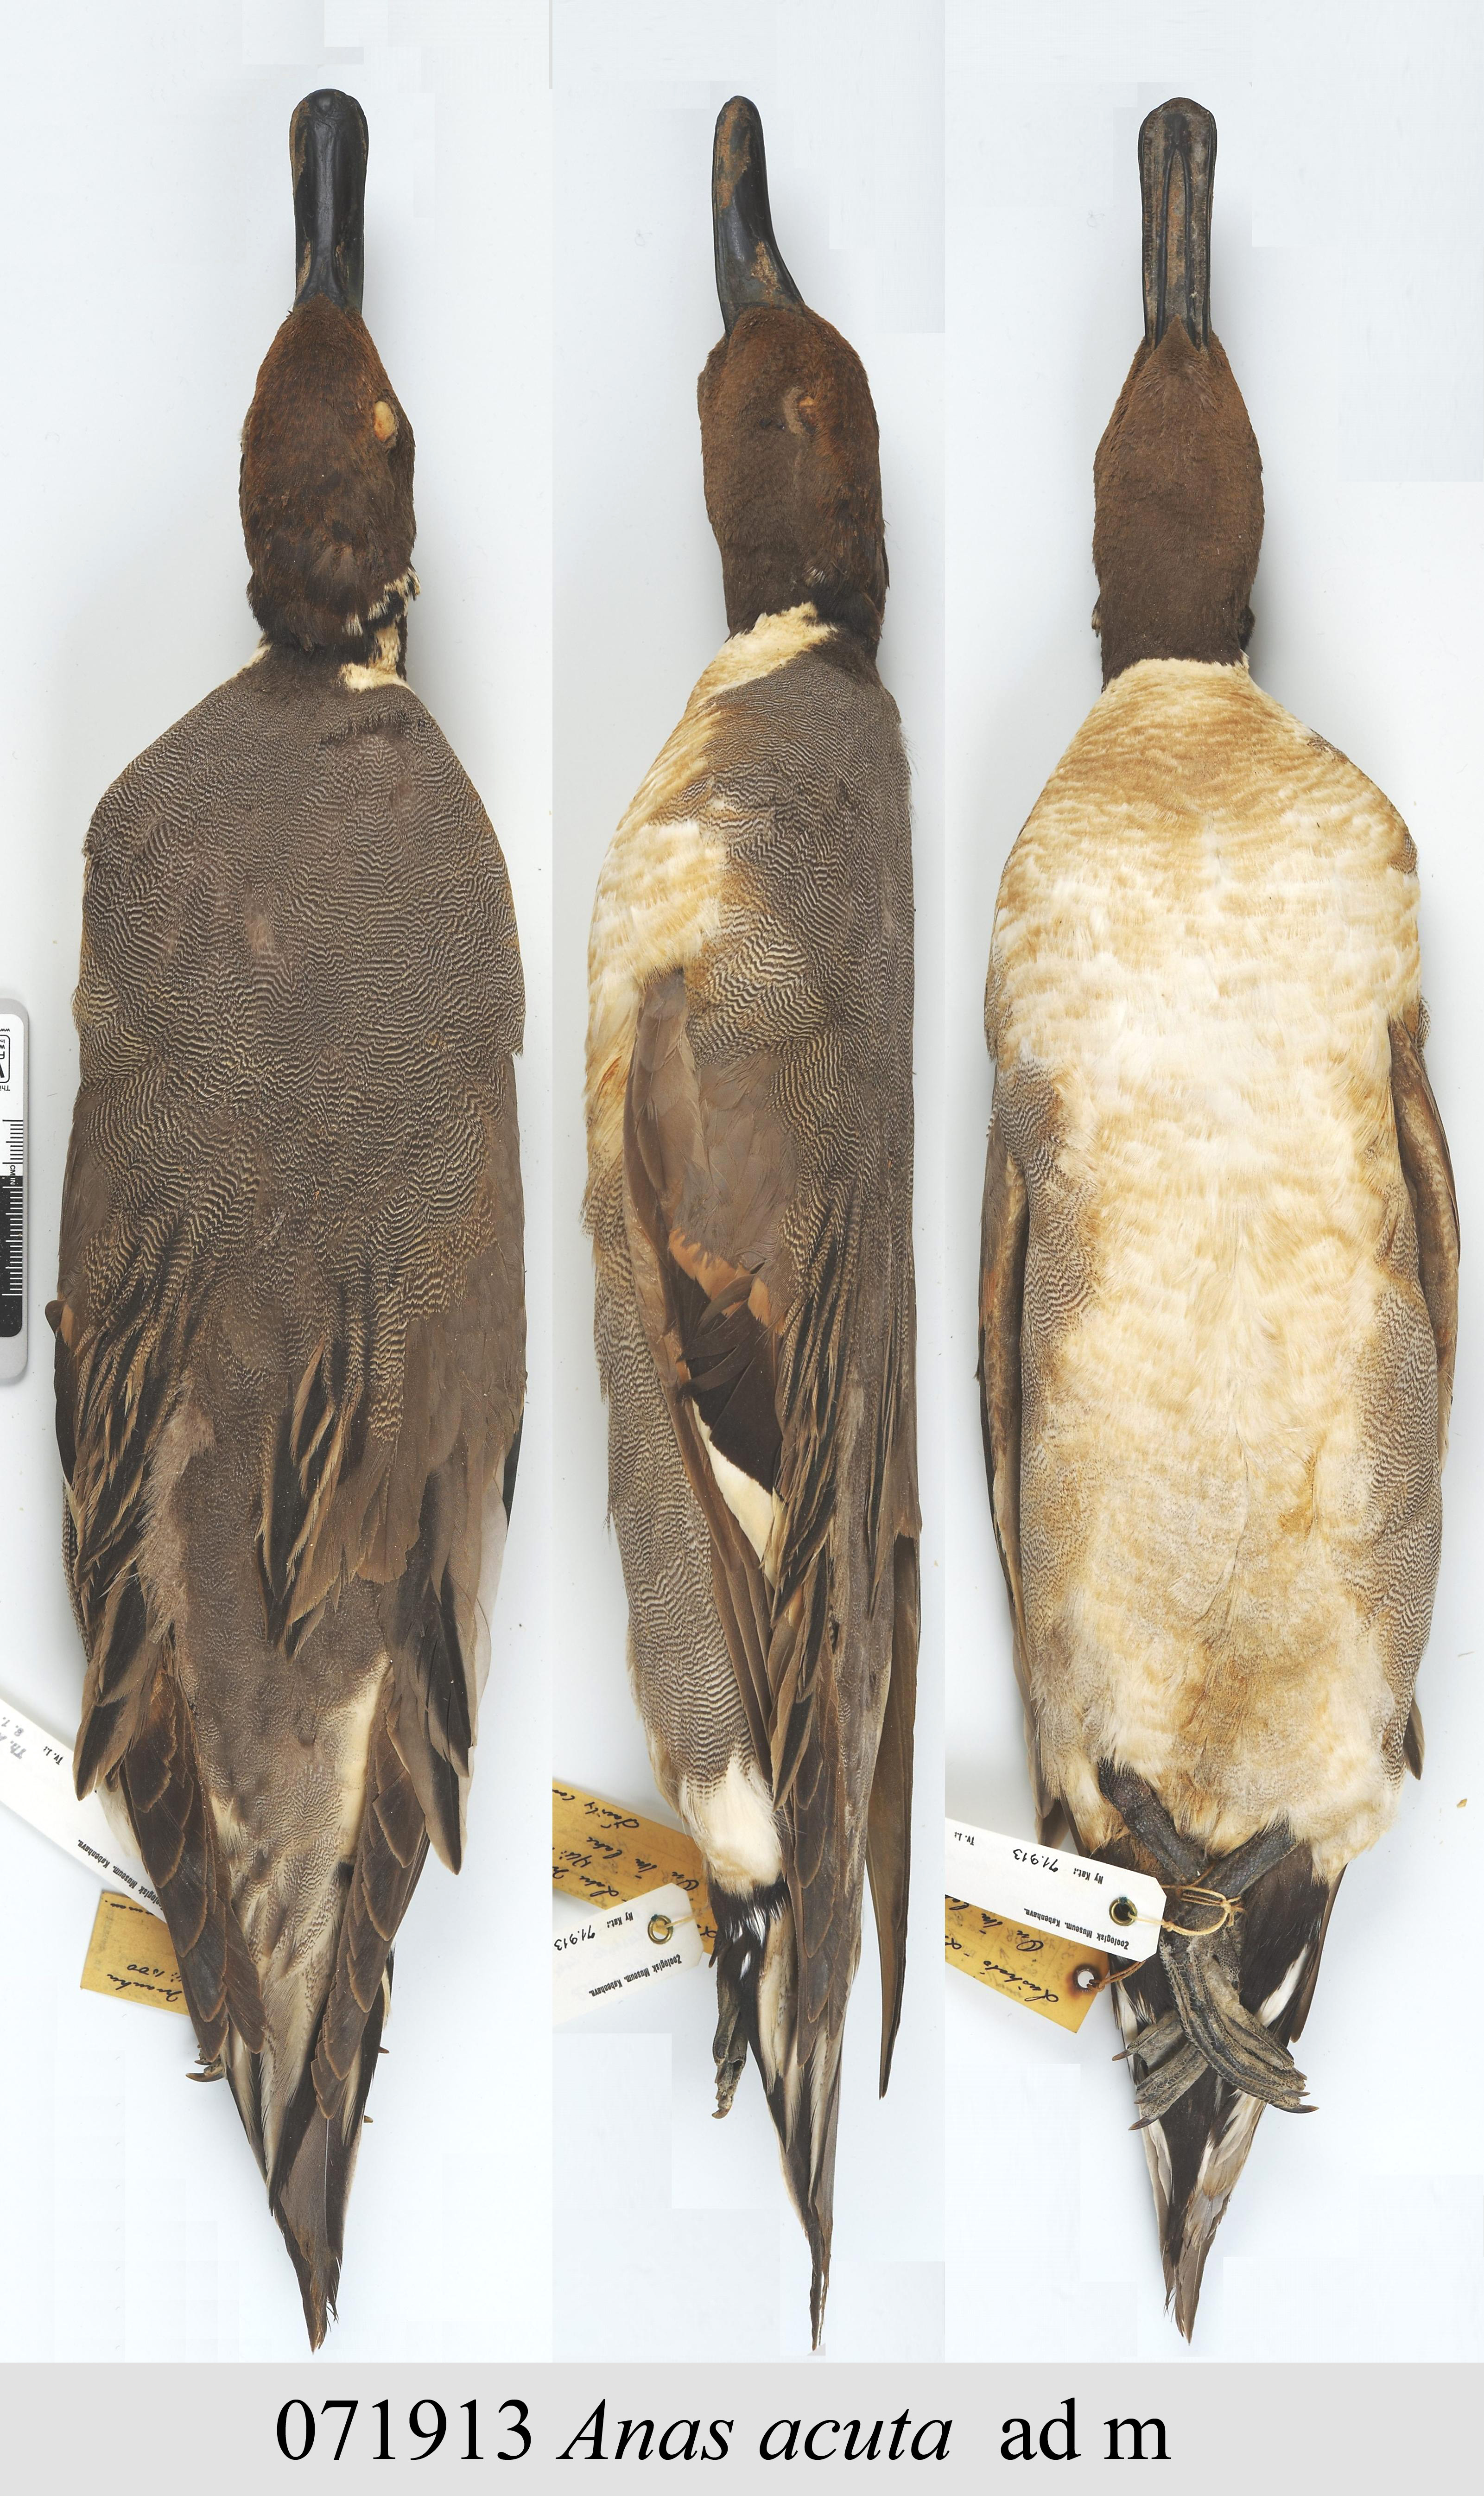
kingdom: Animalia
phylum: Chordata
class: Aves
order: Anseriformes
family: Anatidae
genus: Anas
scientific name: Anas acuta
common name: Northern pintail
